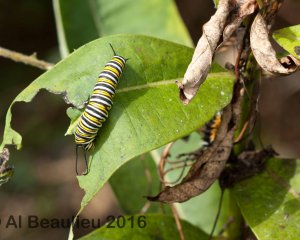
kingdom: Animalia
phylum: Arthropoda
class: Insecta
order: Lepidoptera
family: Nymphalidae
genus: Danaus
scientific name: Danaus plexippus
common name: Monarch
